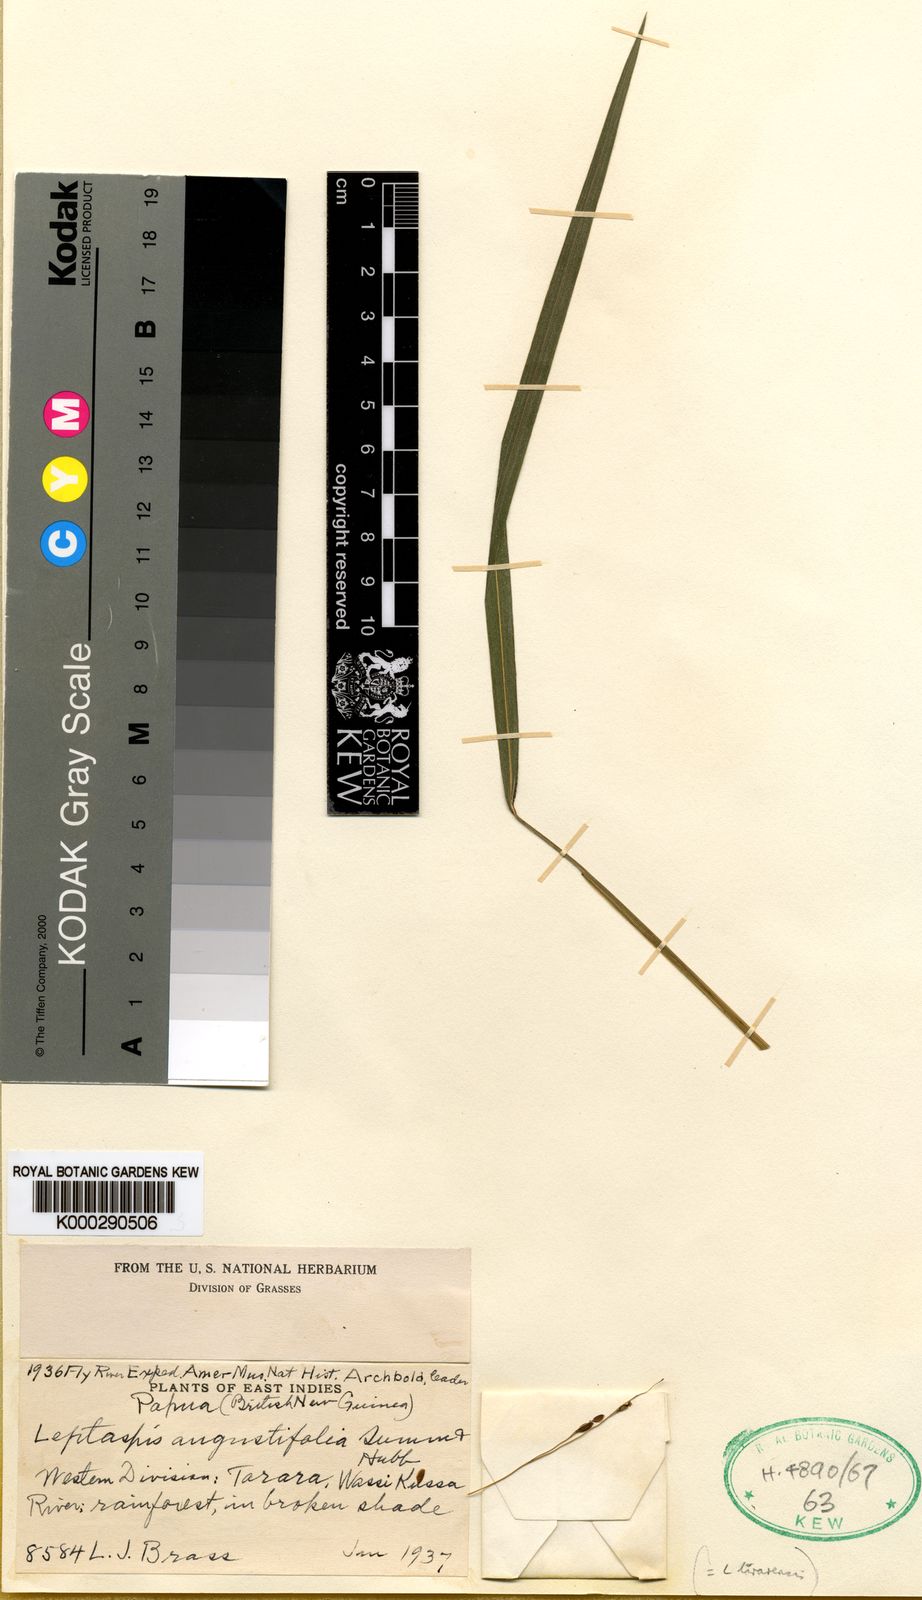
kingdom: Plantae
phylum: Tracheophyta
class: Liliopsida
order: Poales
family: Poaceae
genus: Scrotochloa
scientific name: Scrotochloa tararaensis
